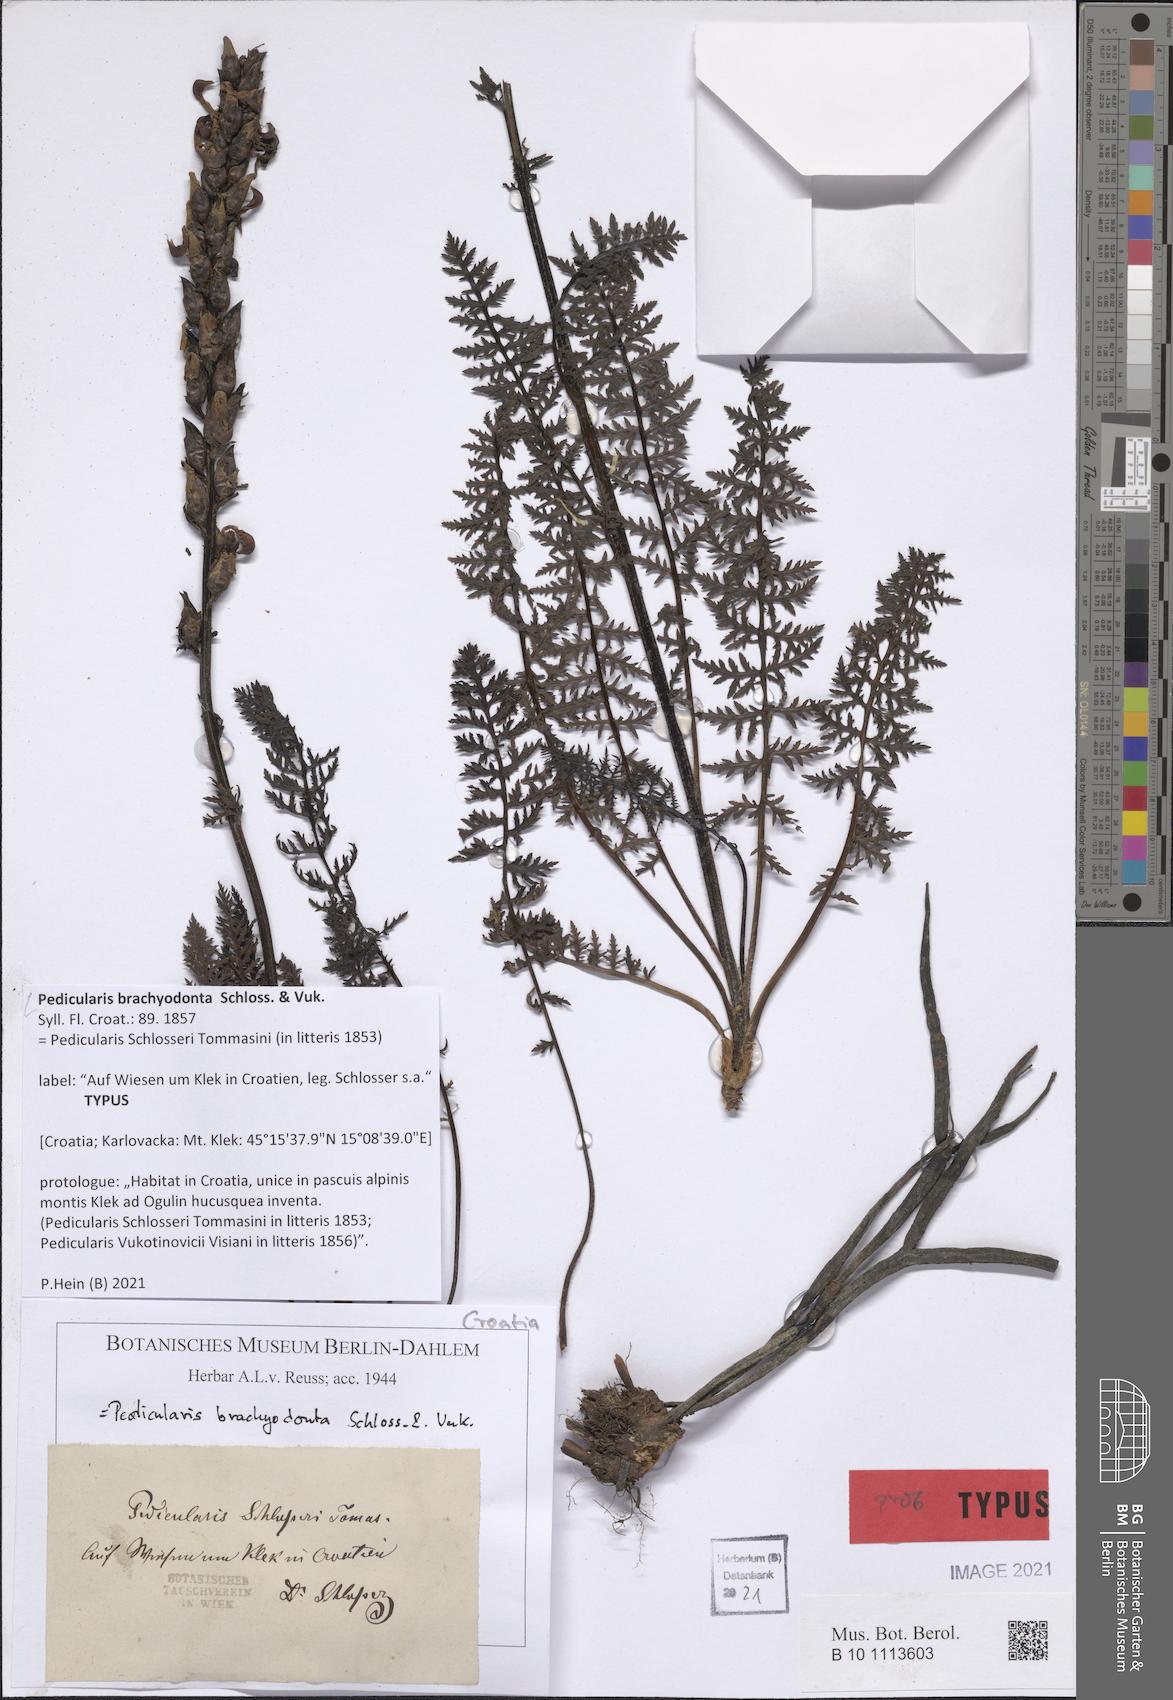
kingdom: Plantae
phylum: Tracheophyta
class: Magnoliopsida
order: Lamiales
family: Orobanchaceae
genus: Pedicularis
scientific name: Pedicularis brachyodonta
